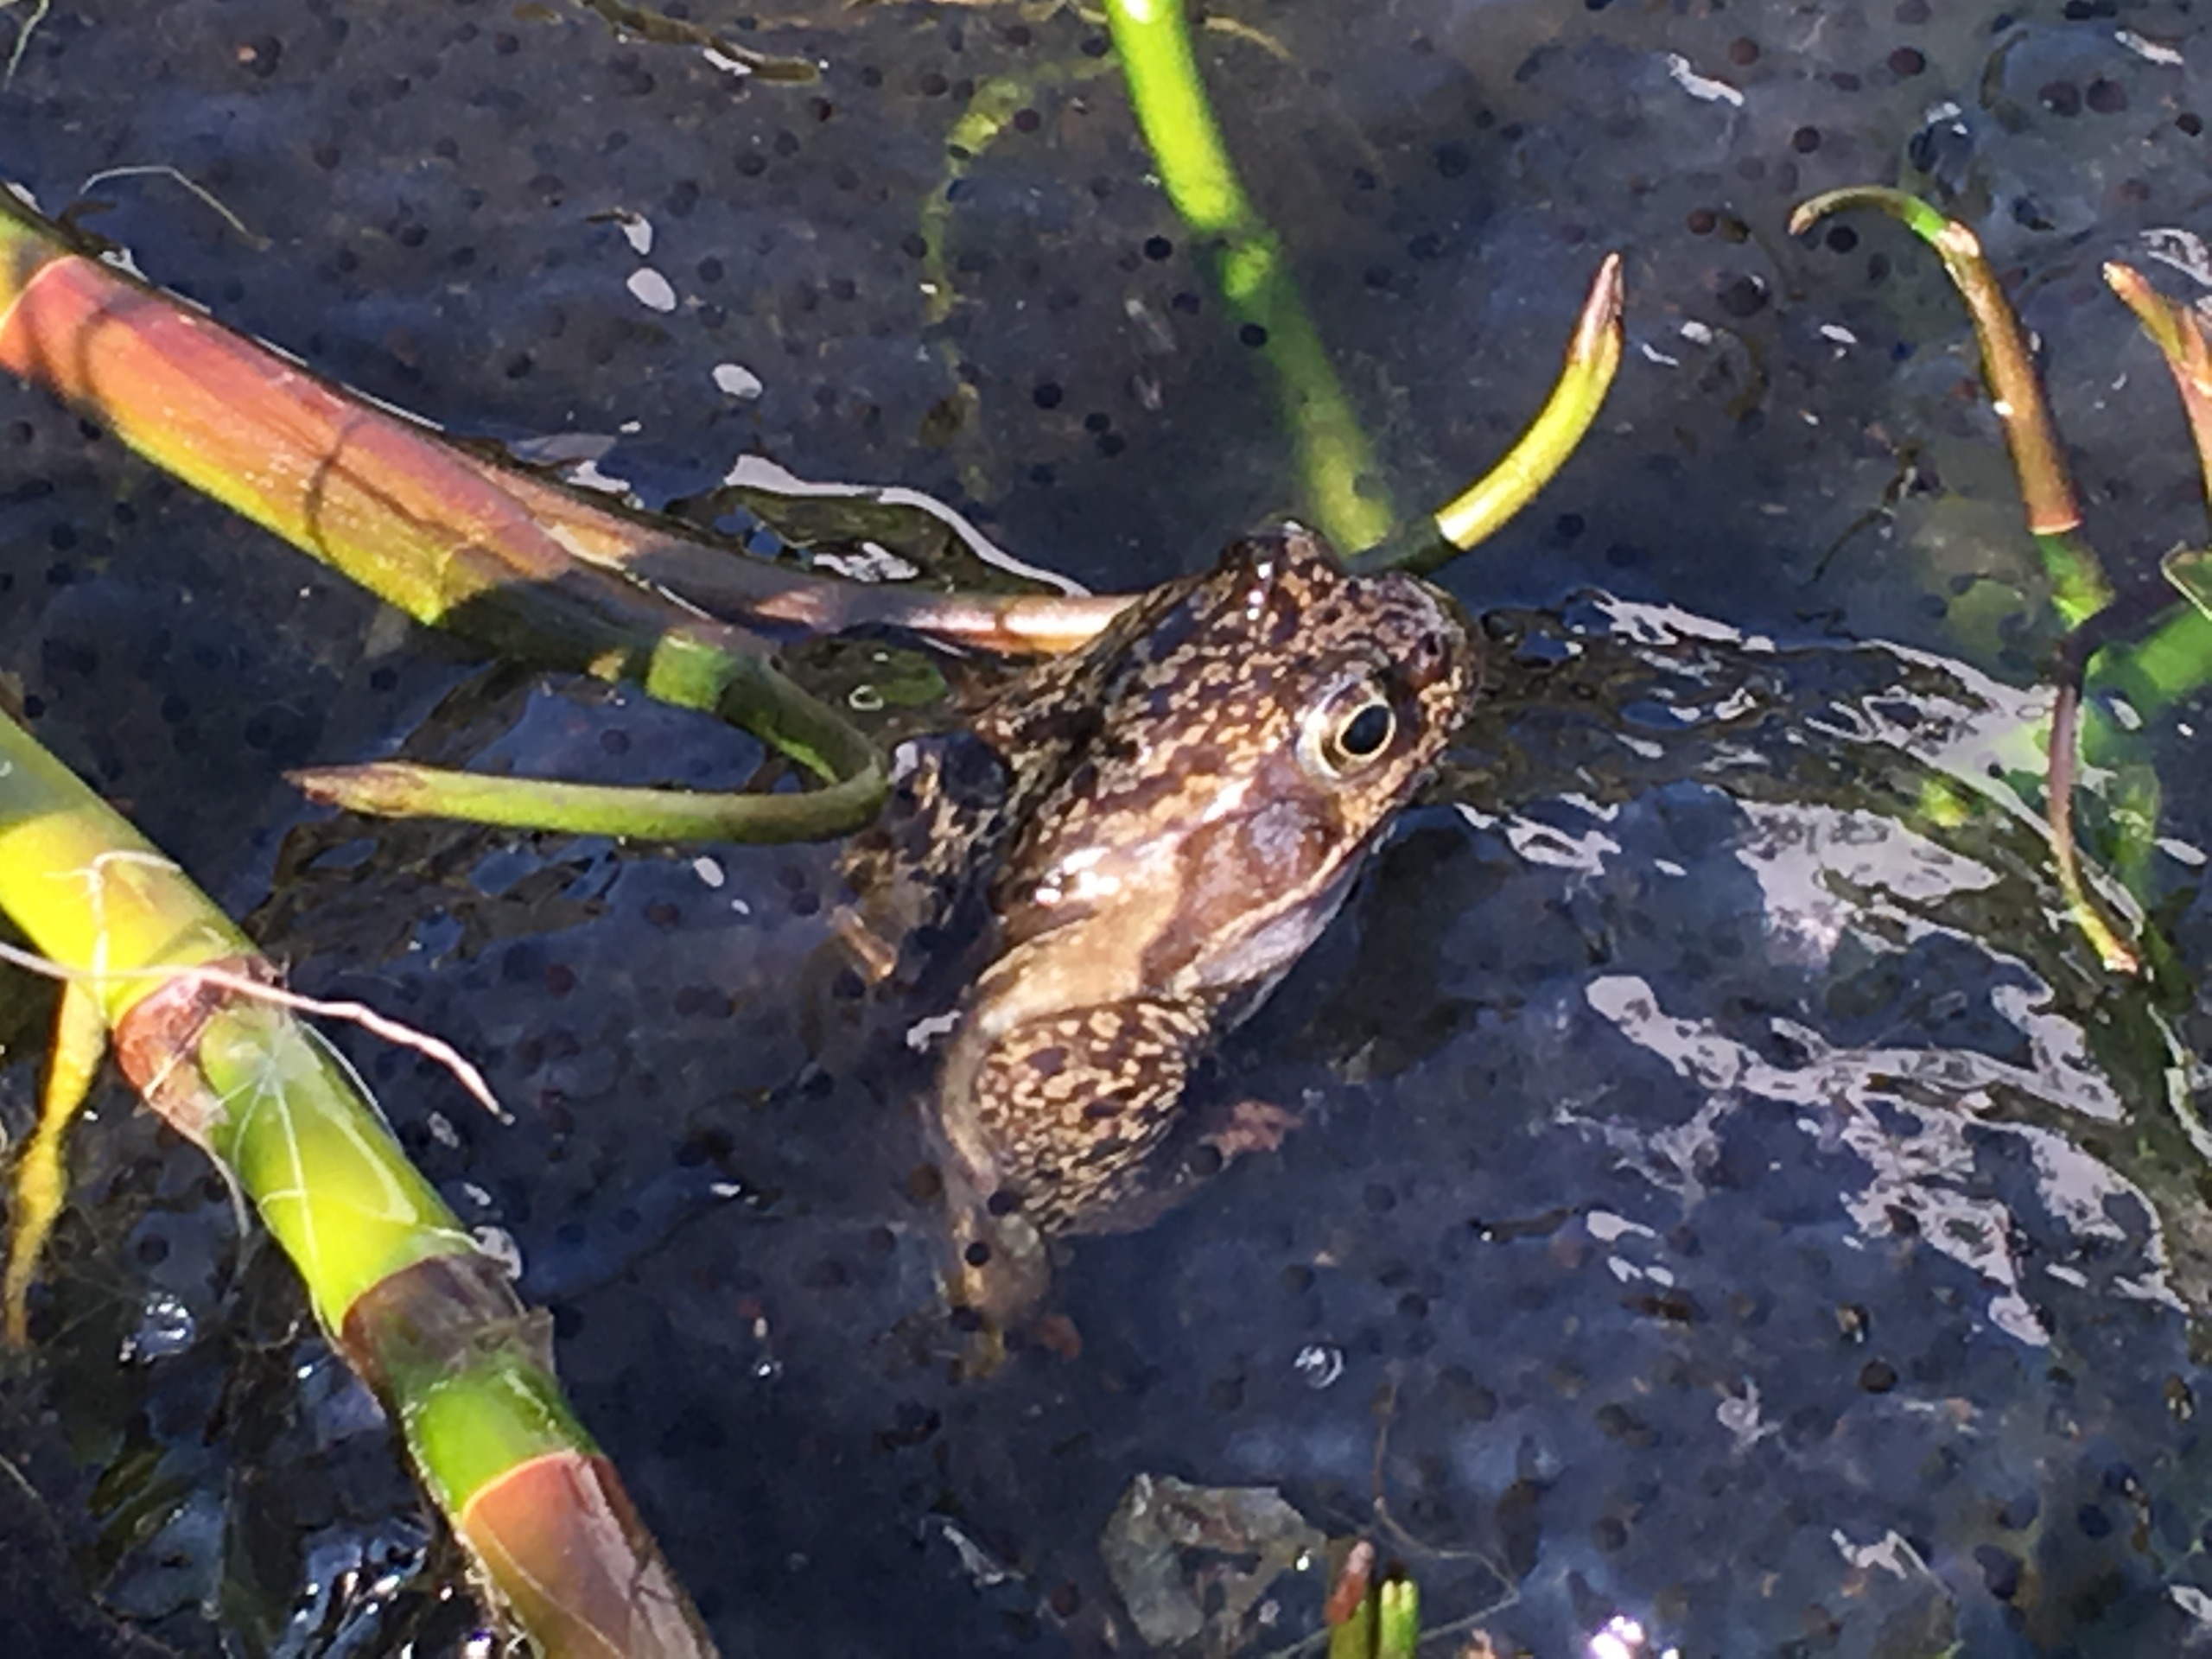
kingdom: Animalia
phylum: Chordata
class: Amphibia
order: Anura
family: Ranidae
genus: Rana
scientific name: Rana temporaria
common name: Butsnudet frø
